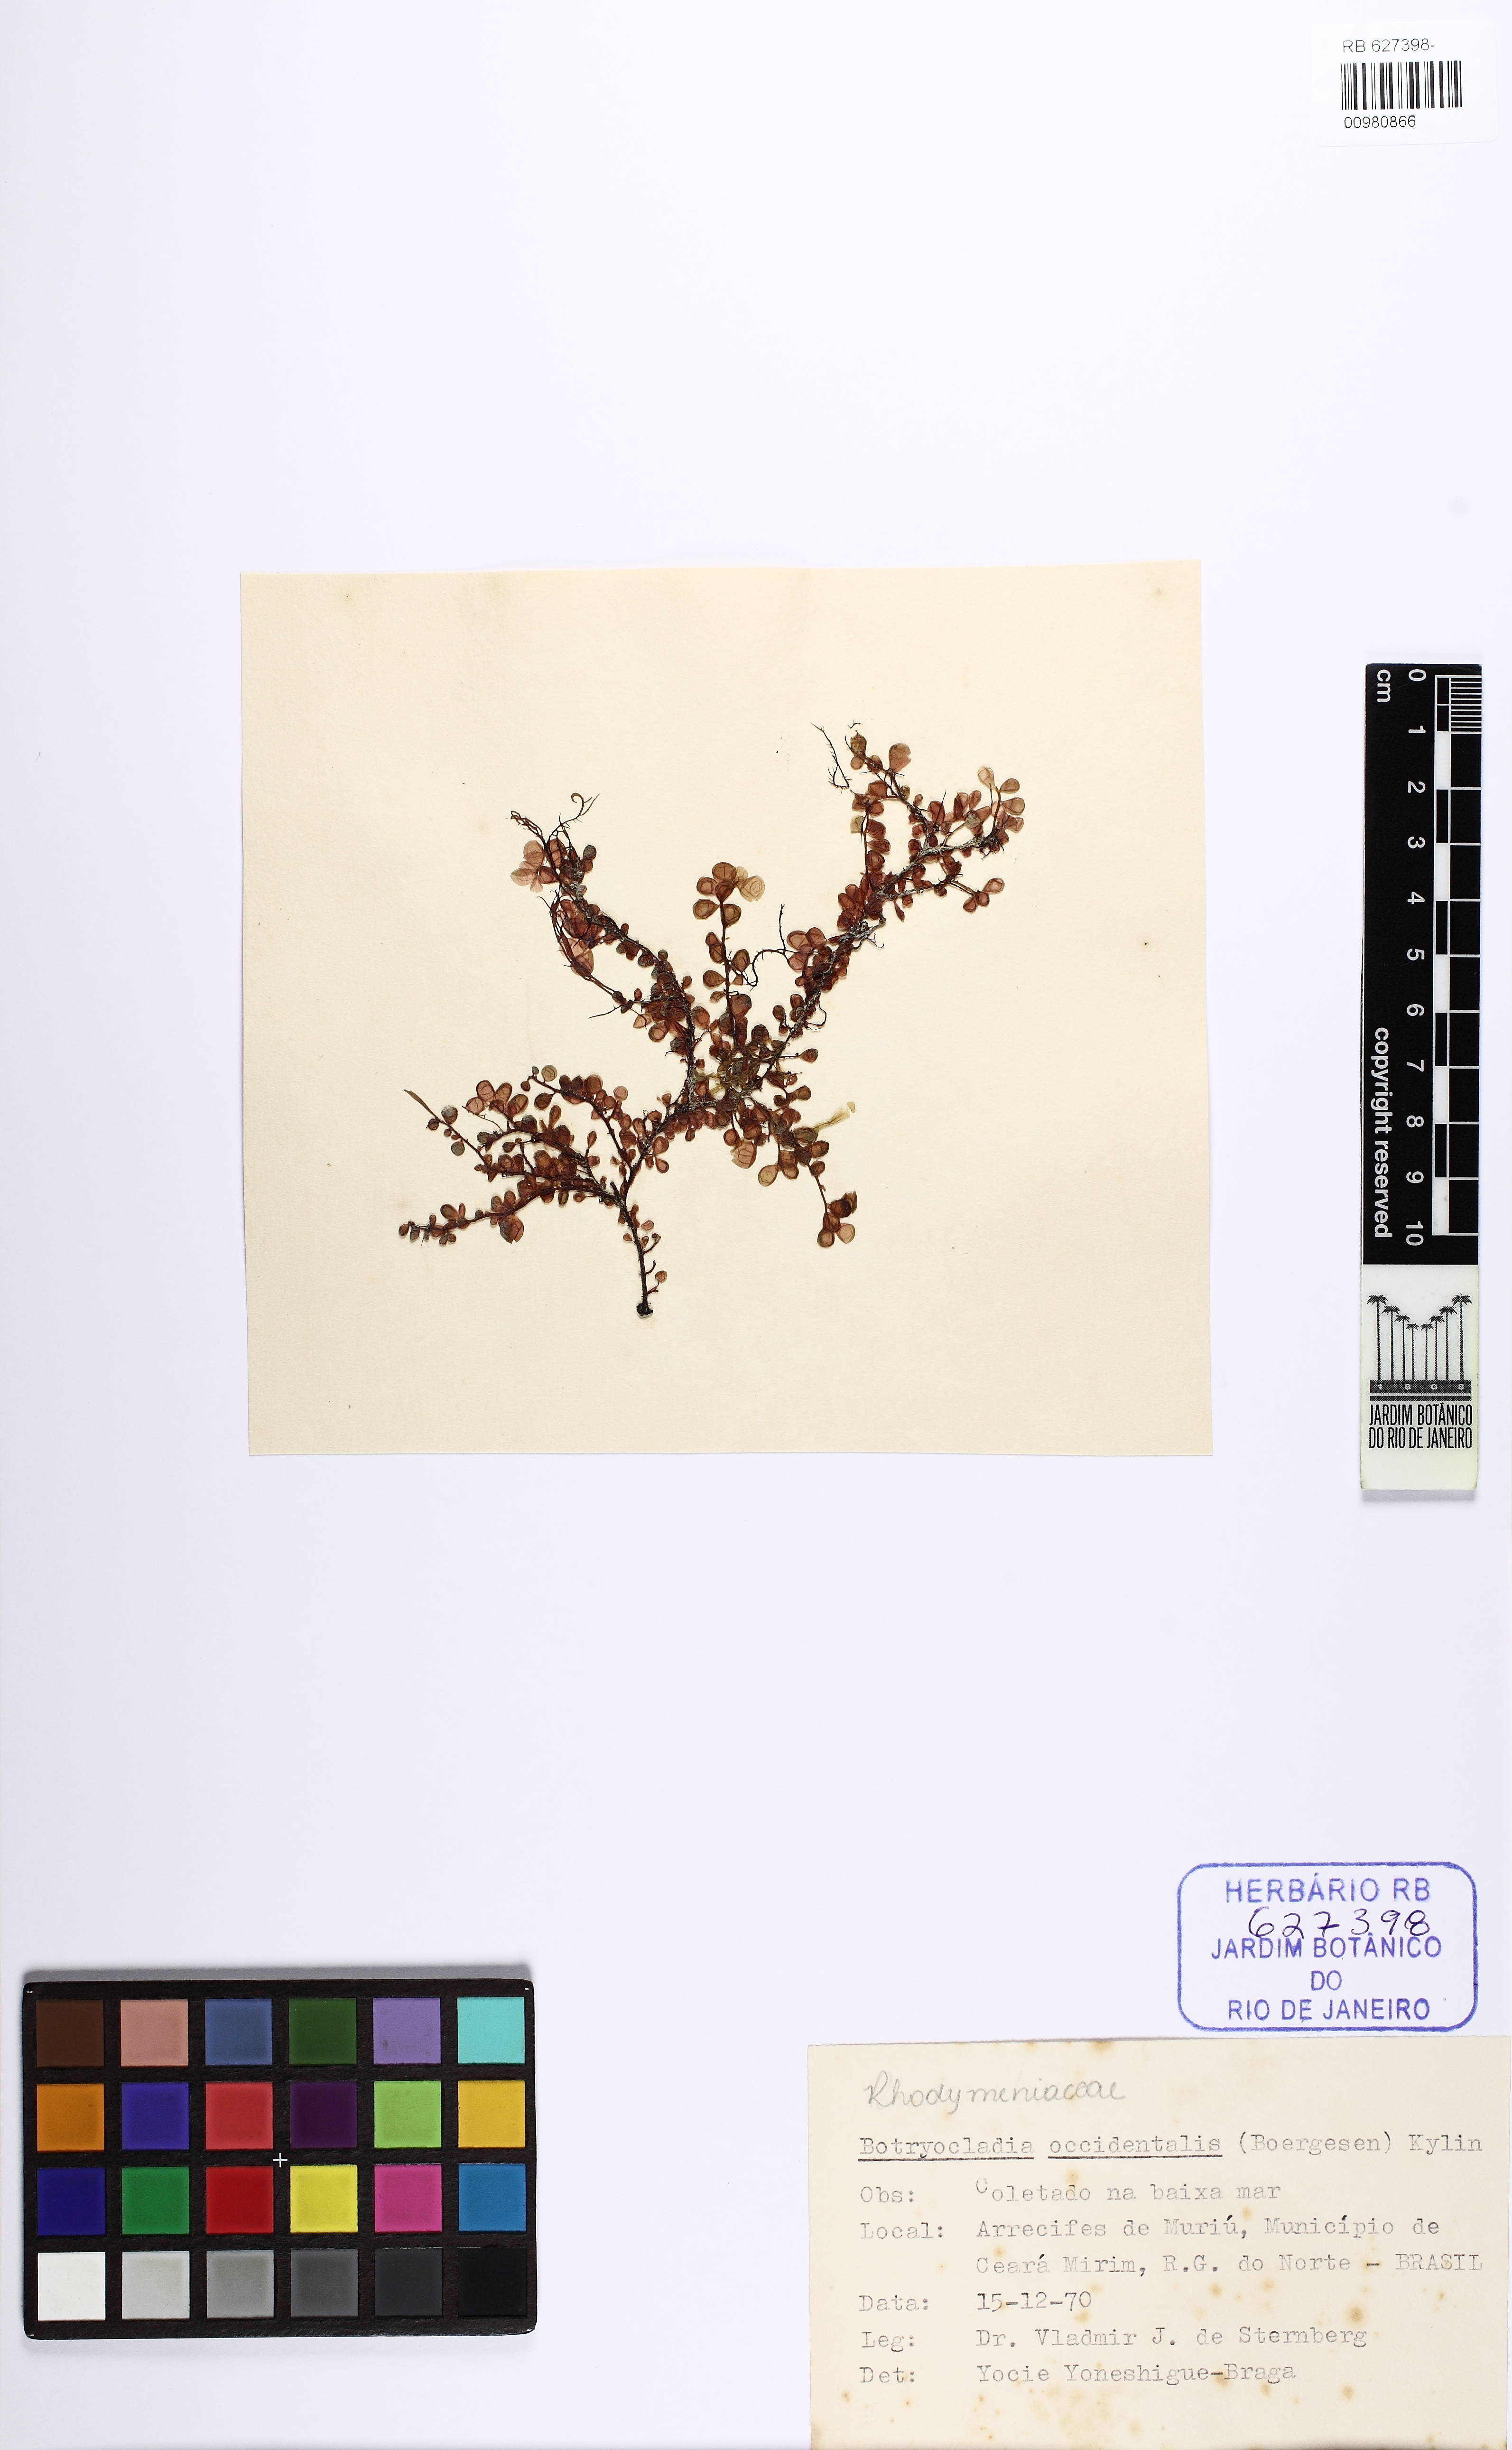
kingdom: Plantae
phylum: Rhodophyta
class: Florideophyceae
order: Rhodymeniales
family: Rhodymeniaceae
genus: Botryocladia
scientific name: Botryocladia occidentalis
